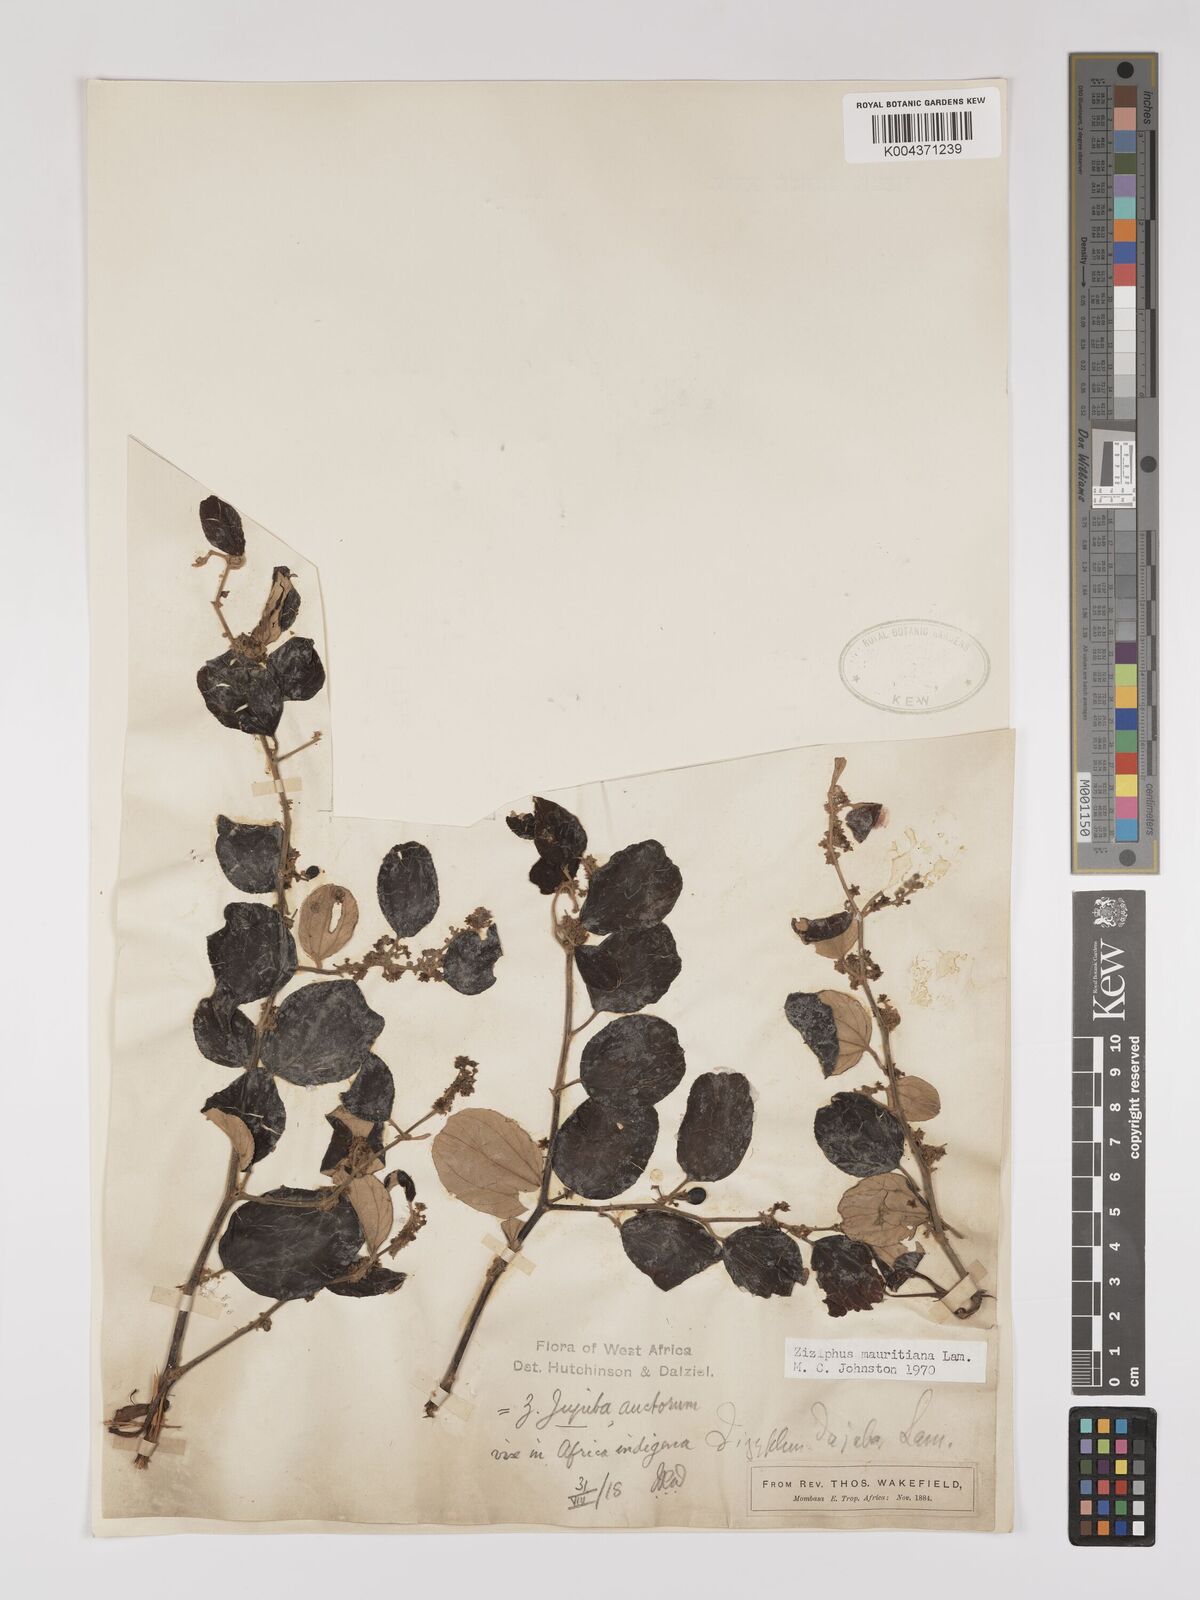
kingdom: Plantae
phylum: Tracheophyta
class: Magnoliopsida
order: Rosales
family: Rhamnaceae
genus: Ziziphus
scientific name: Ziziphus mauritiana
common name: Indian jujube
